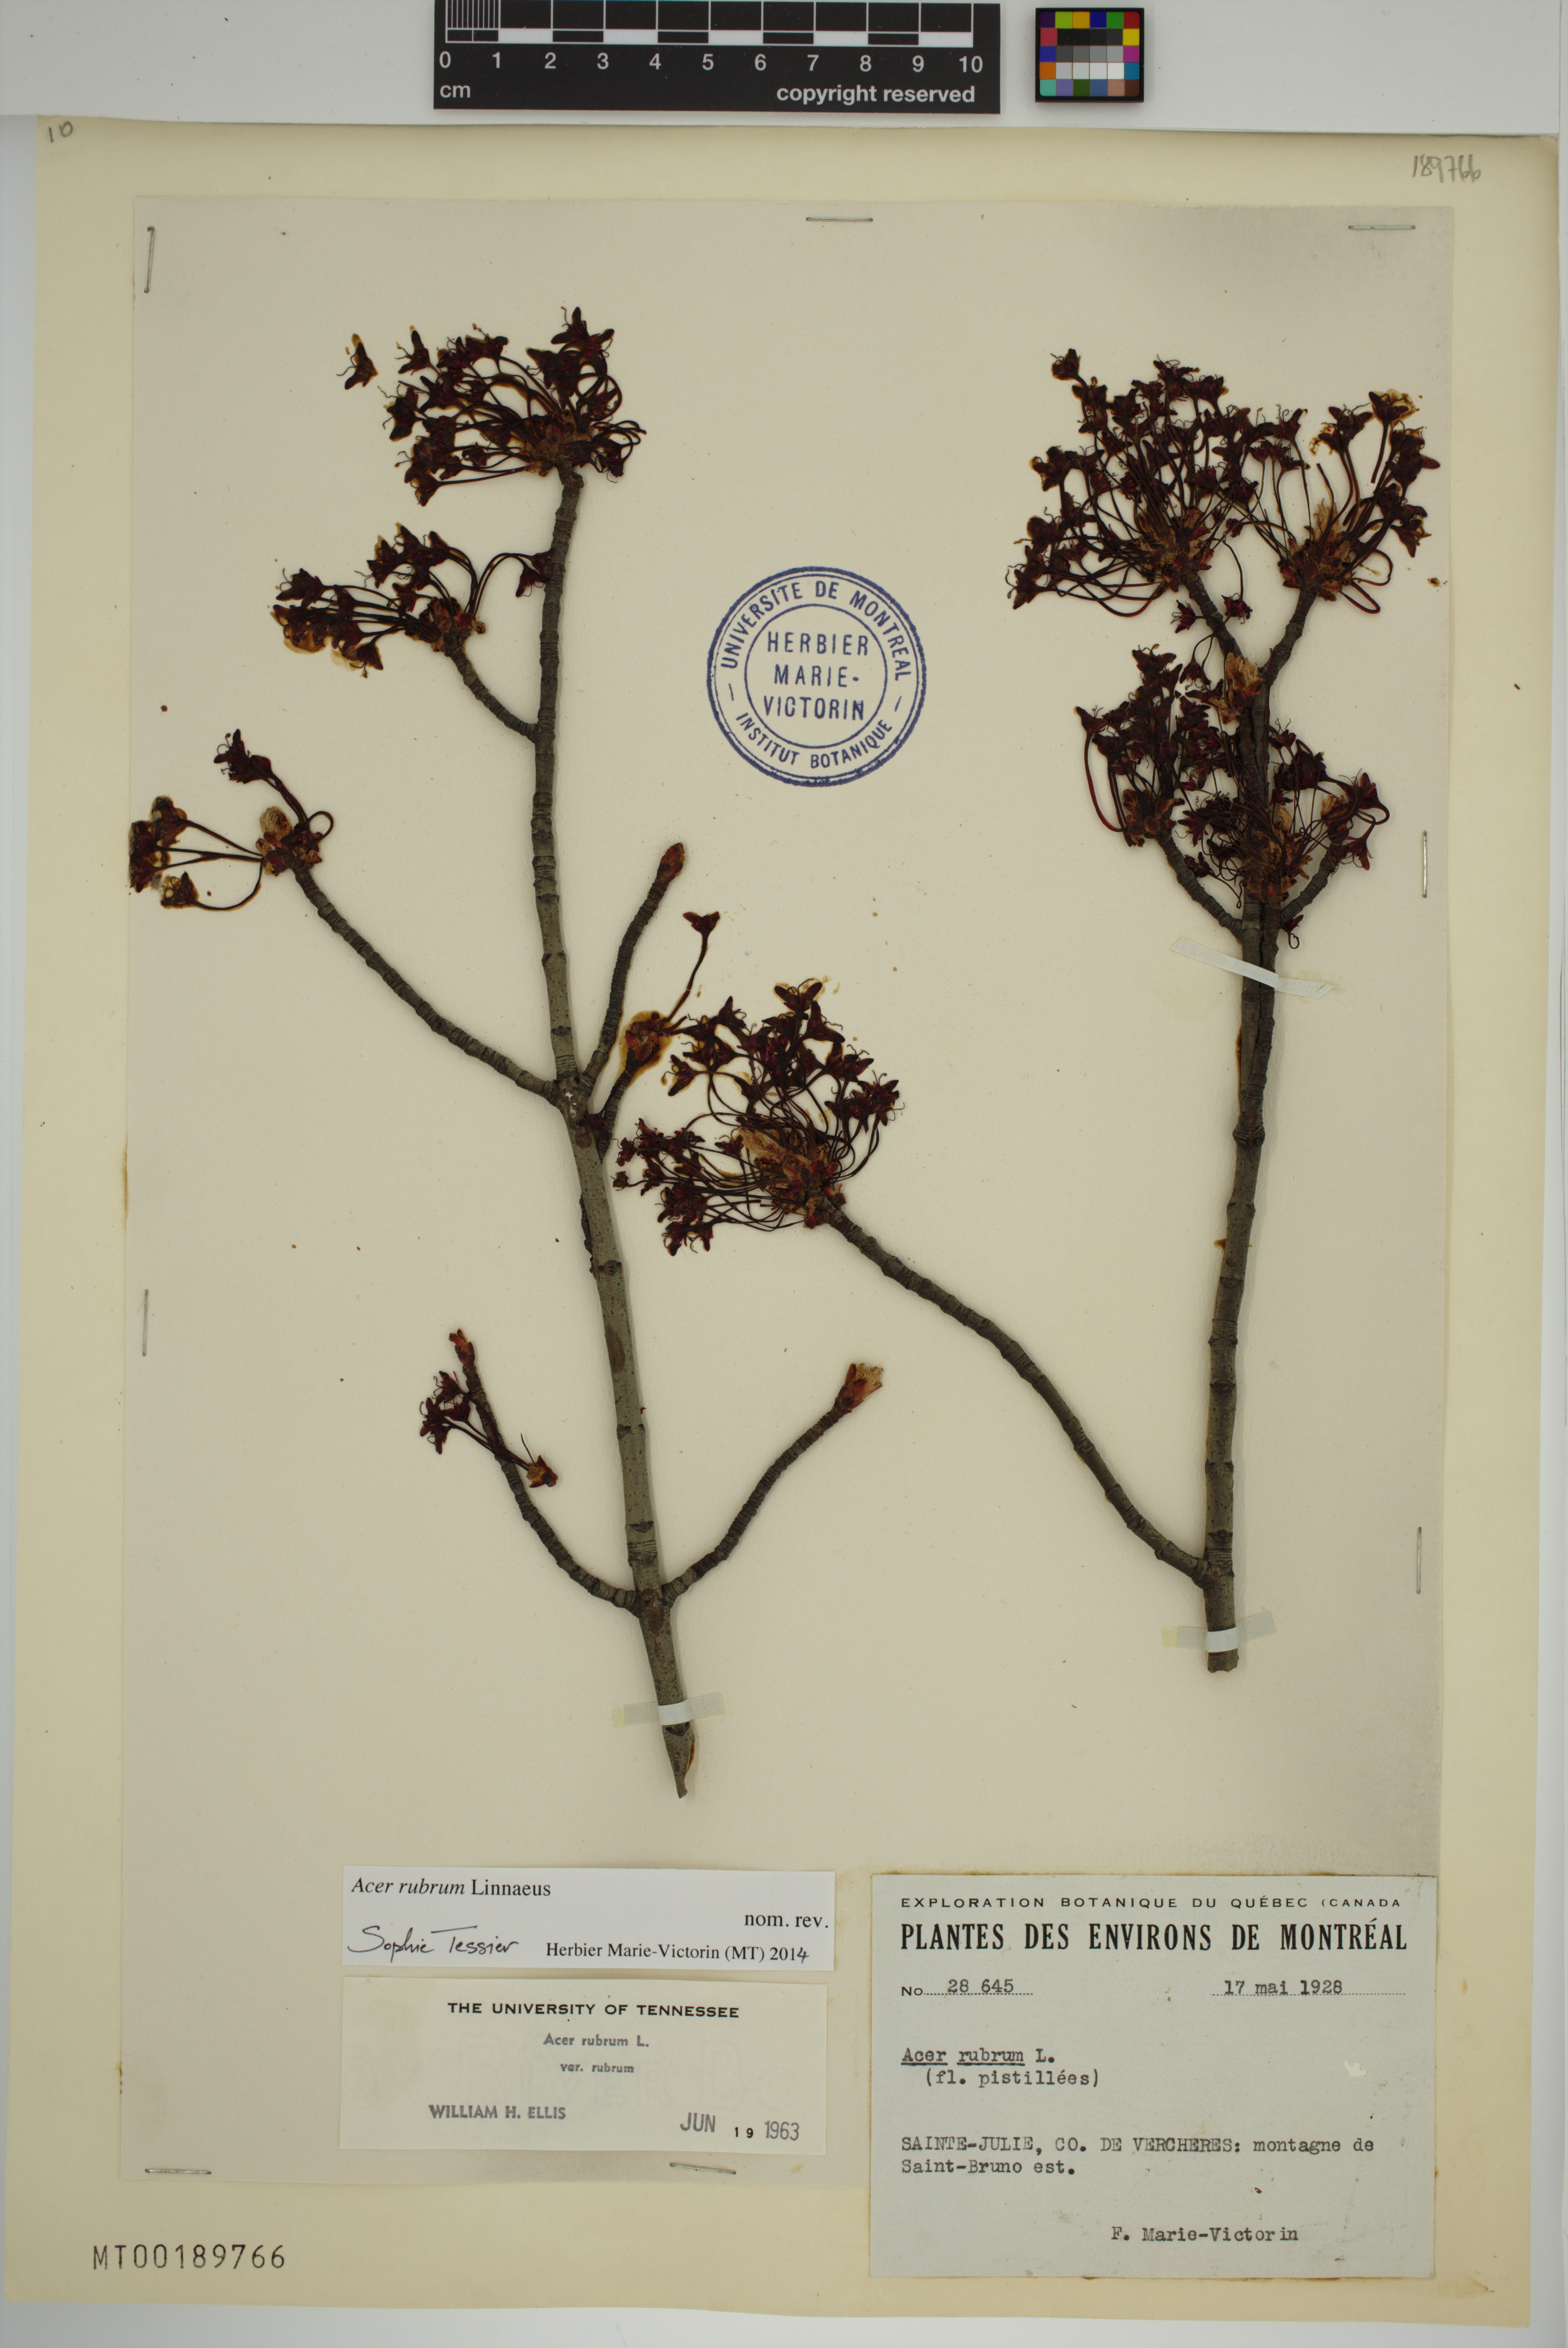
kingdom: Plantae
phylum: Tracheophyta
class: Magnoliopsida
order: Sapindales
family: Sapindaceae
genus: Acer
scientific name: Acer rubrum
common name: Red maple
